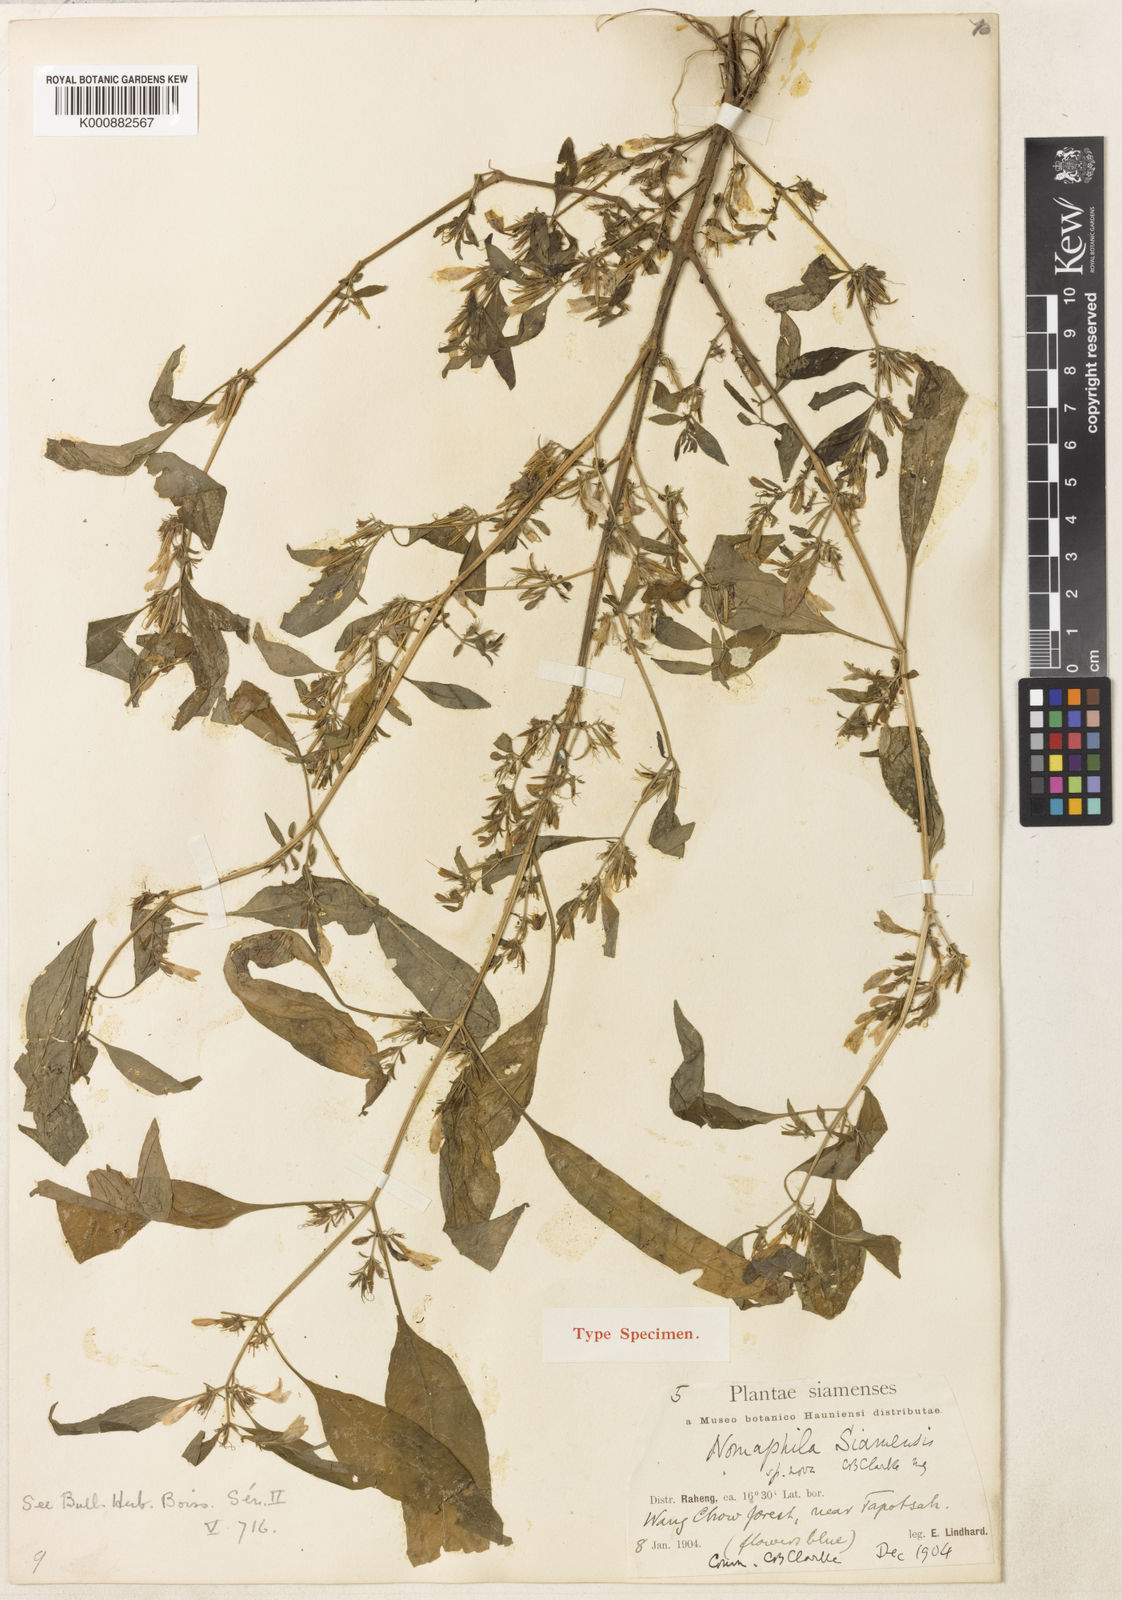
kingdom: Plantae
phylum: Tracheophyta
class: Magnoliopsida
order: Lamiales
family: Acanthaceae
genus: Hygrophila
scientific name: Hygrophila corymbosa
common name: Starhorn
